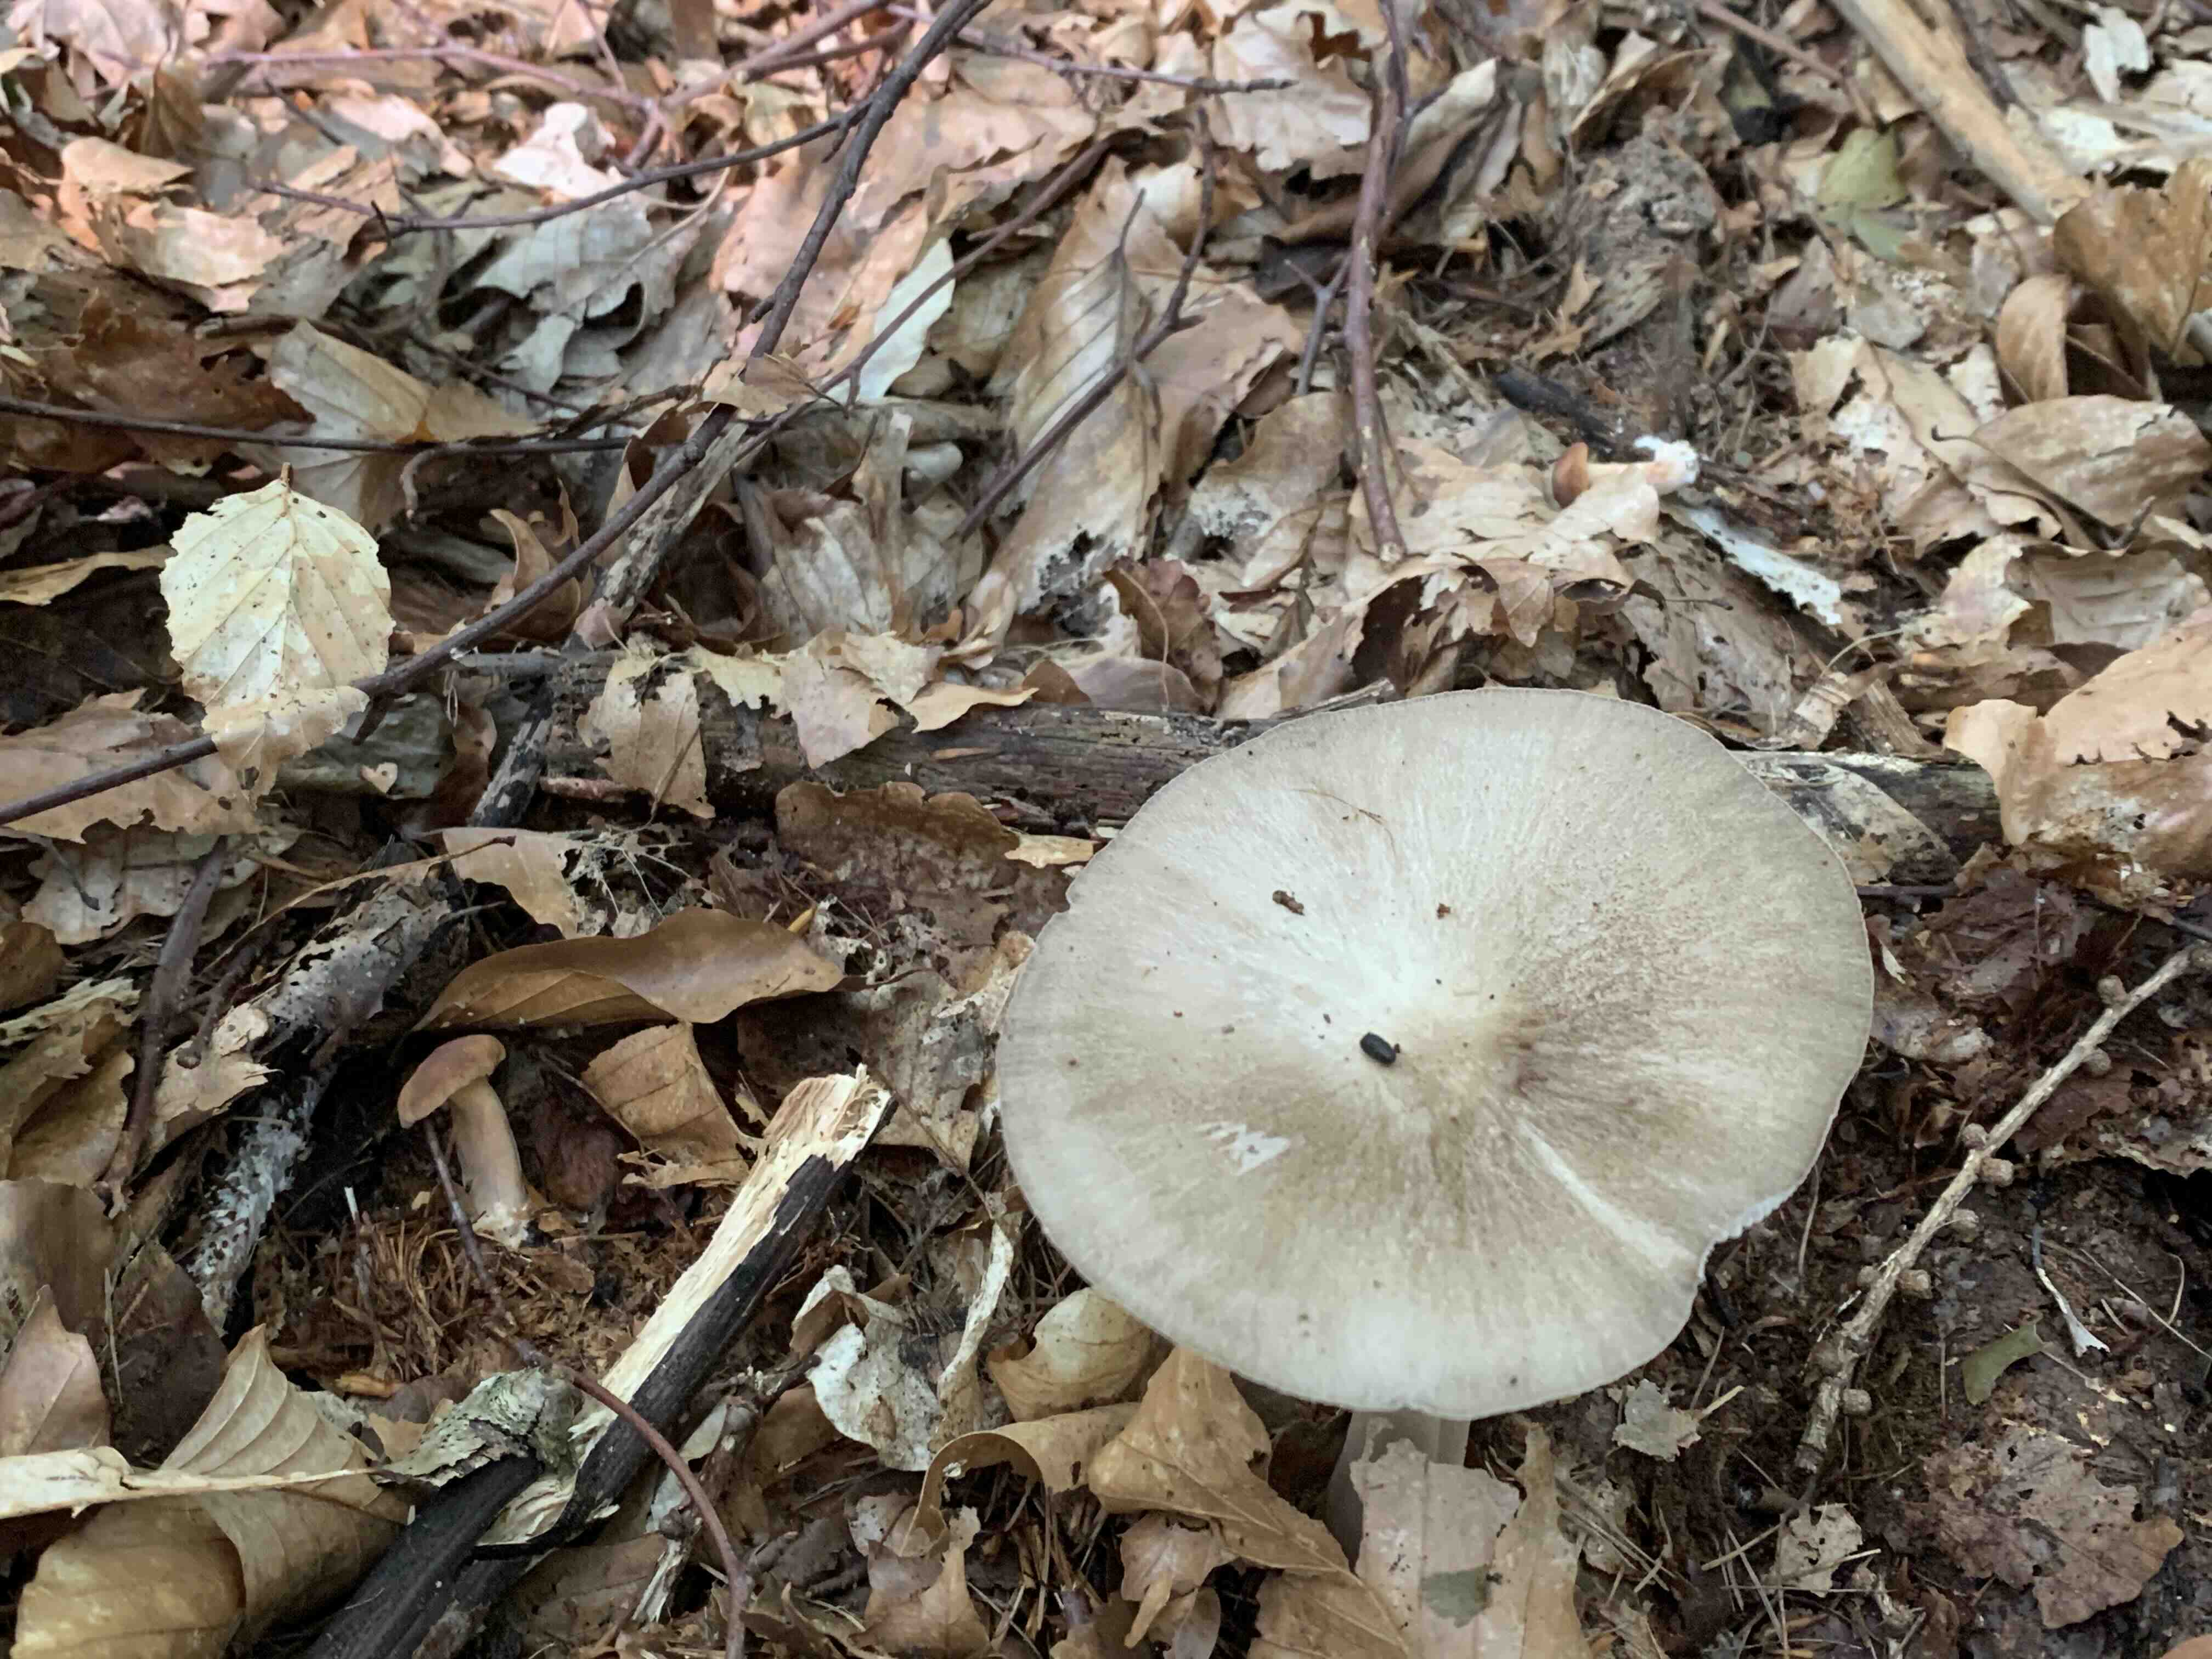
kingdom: Fungi
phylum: Basidiomycota
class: Agaricomycetes
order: Agaricales
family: Tricholomataceae
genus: Megacollybia
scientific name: Megacollybia platyphylla
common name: bredbladet væbnerhat
